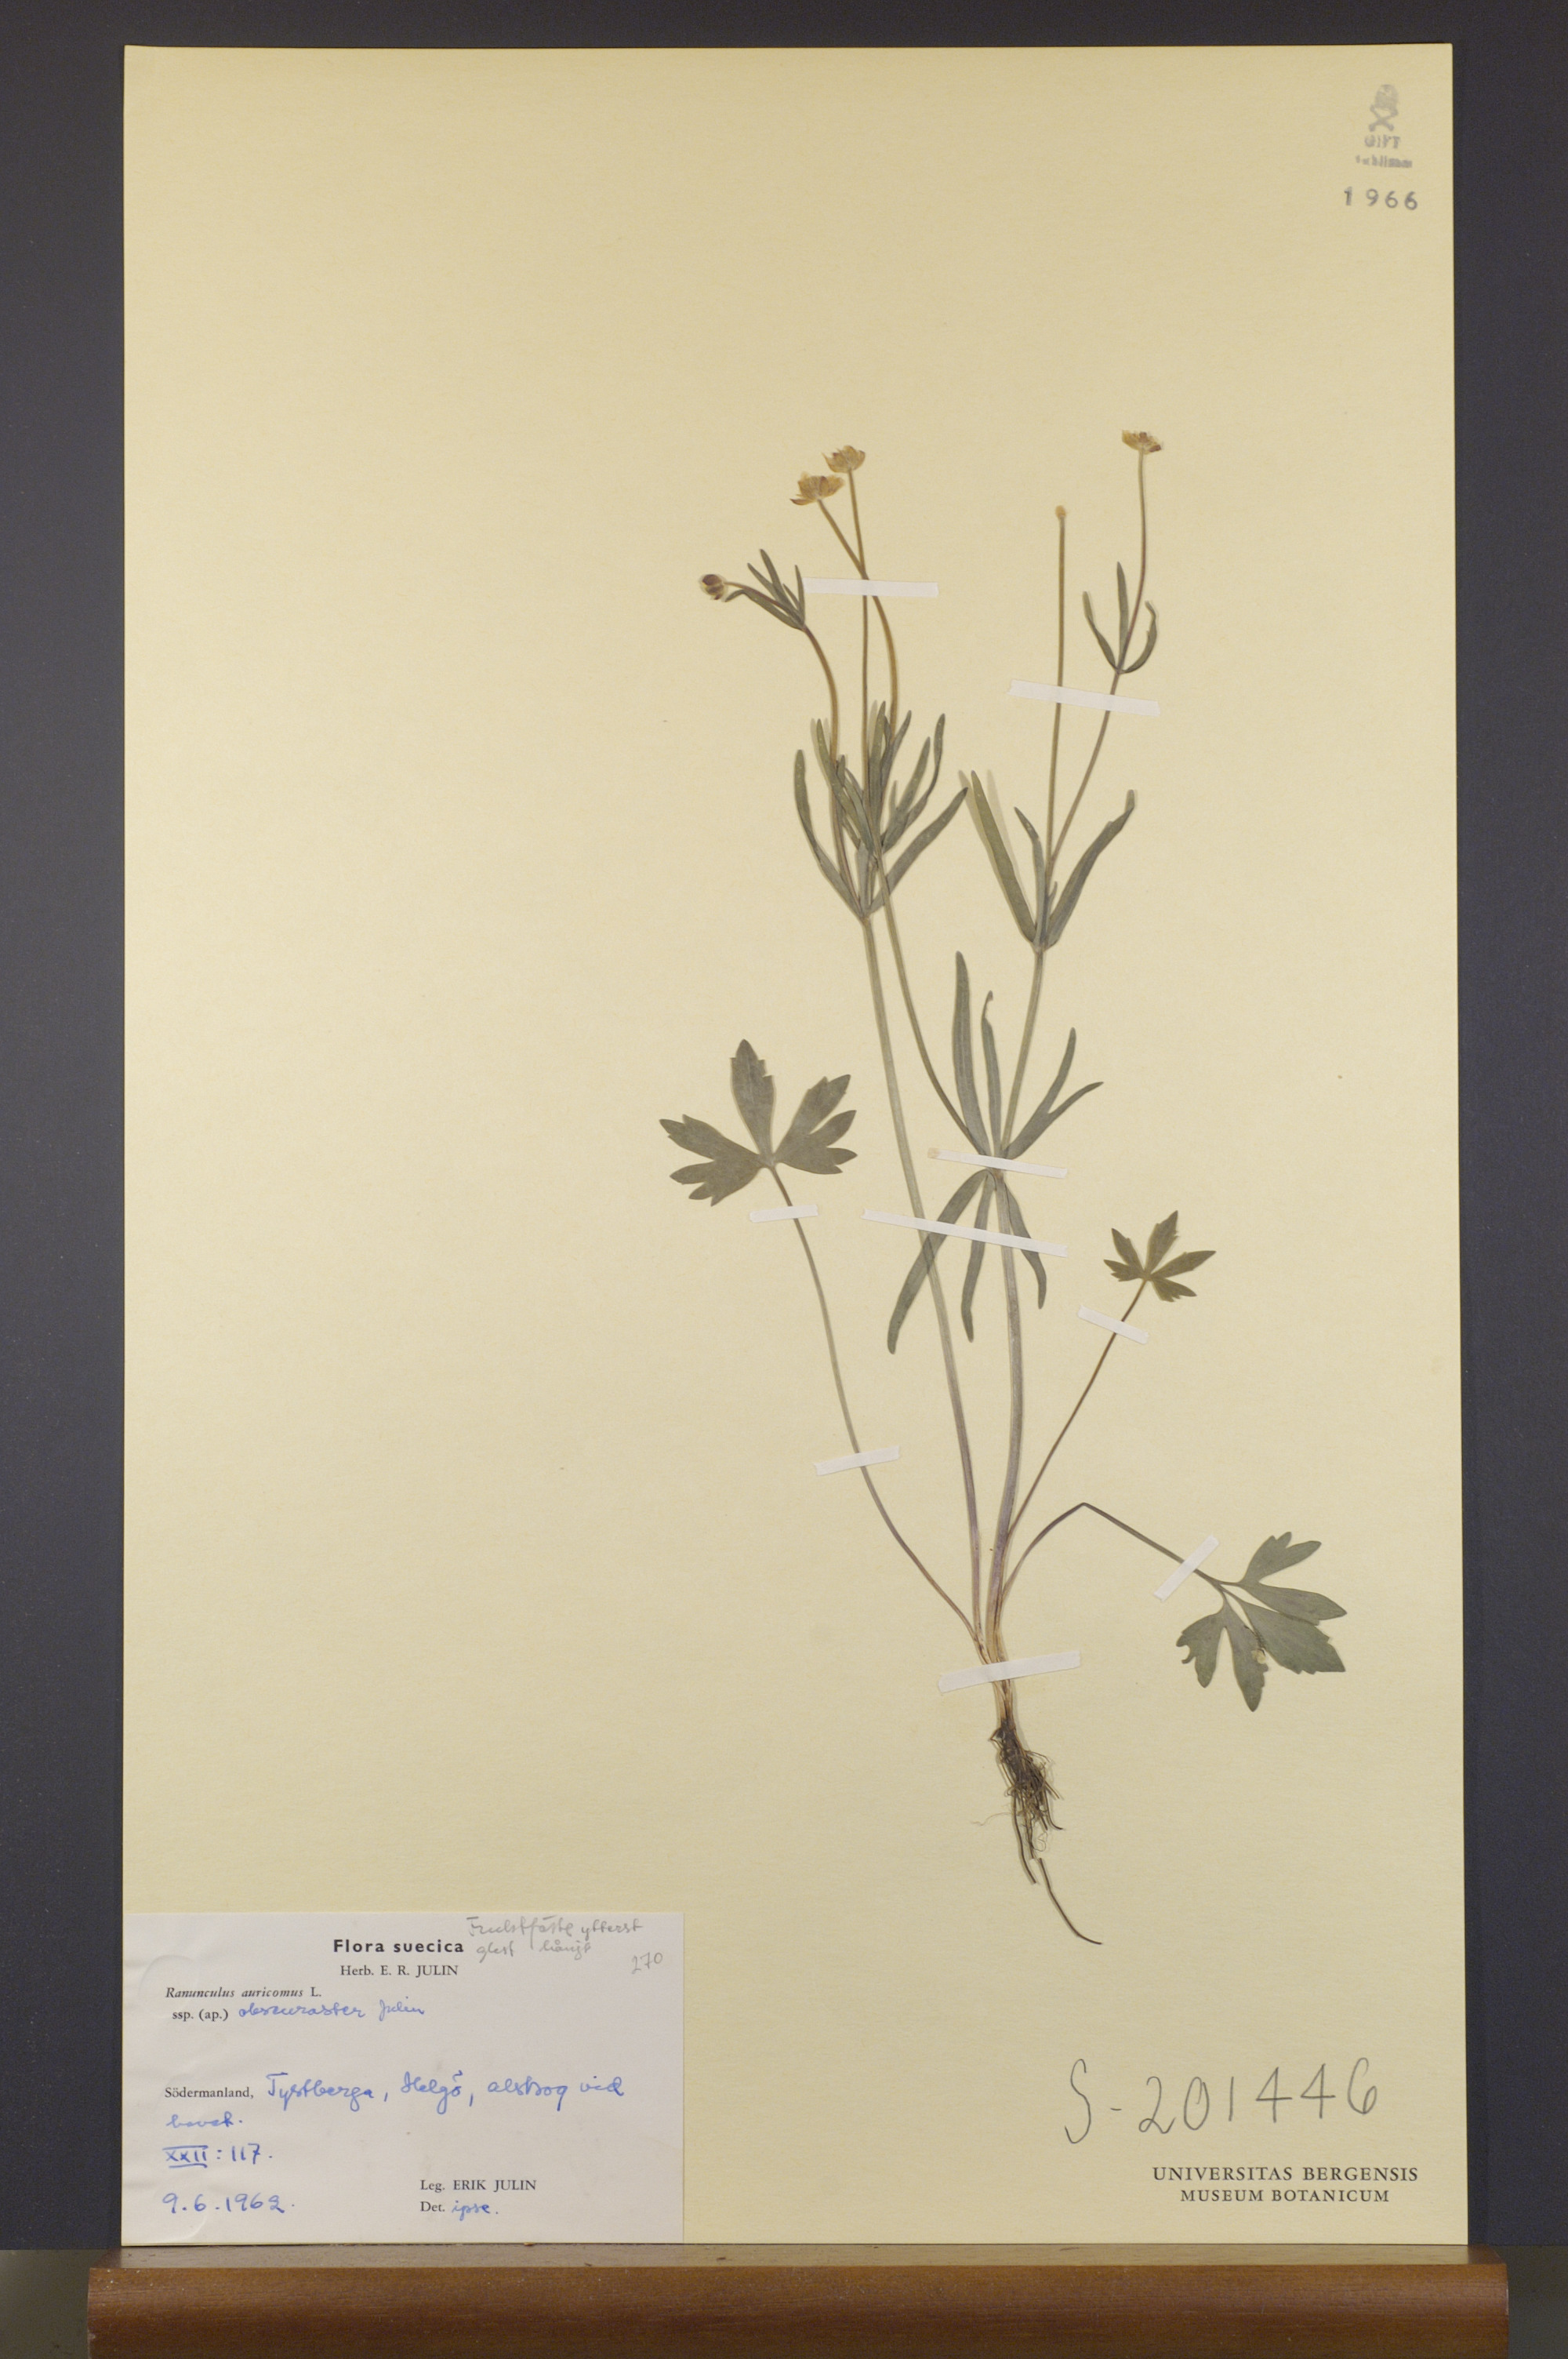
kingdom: Plantae
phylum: Tracheophyta
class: Magnoliopsida
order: Ranunculales
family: Ranunculaceae
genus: Ranunculus
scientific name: Ranunculus obscuraster
